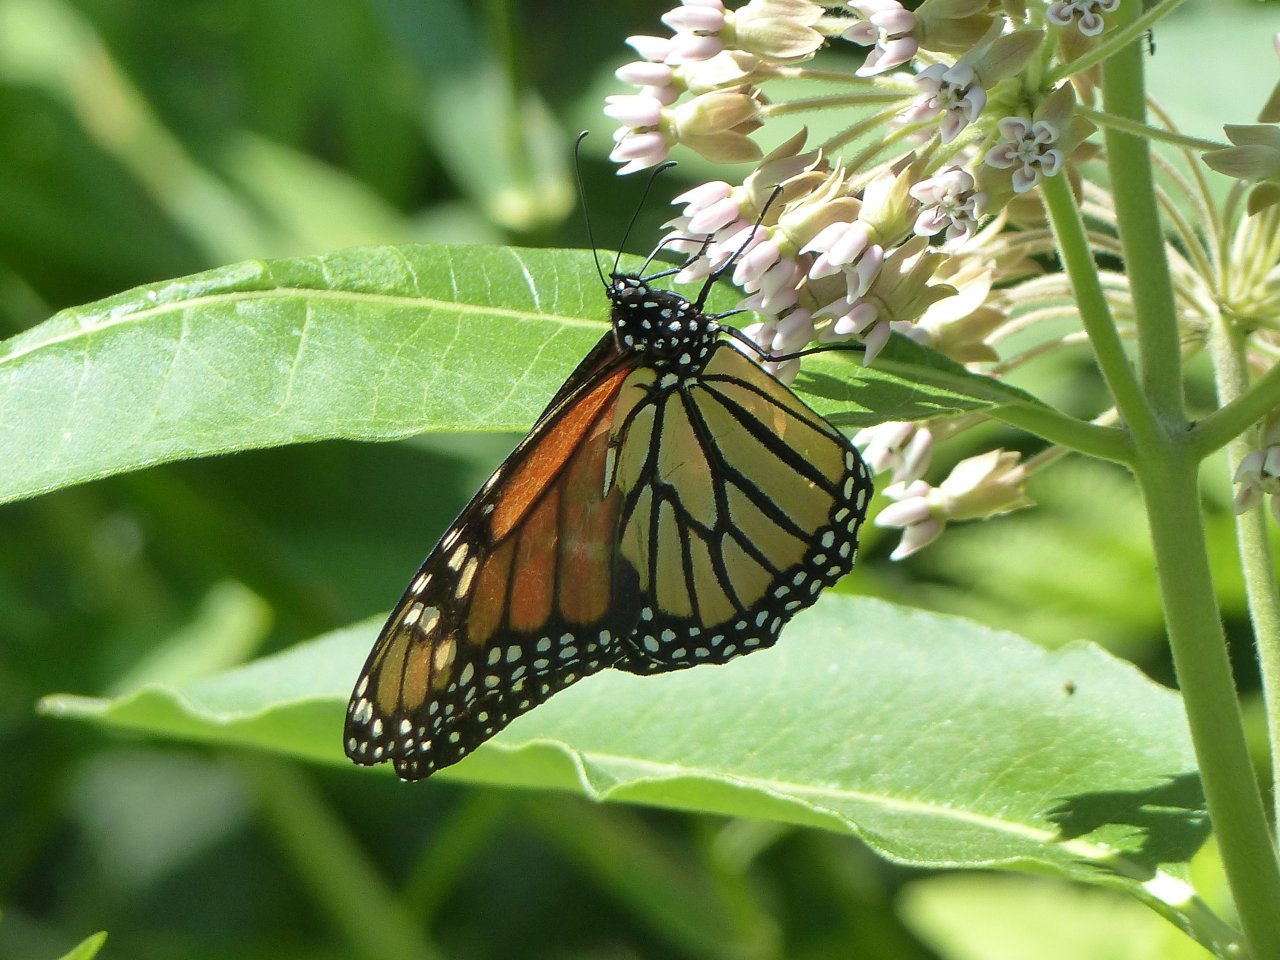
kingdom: Animalia
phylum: Arthropoda
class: Insecta
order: Lepidoptera
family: Nymphalidae
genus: Danaus
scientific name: Danaus plexippus
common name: Monarch
